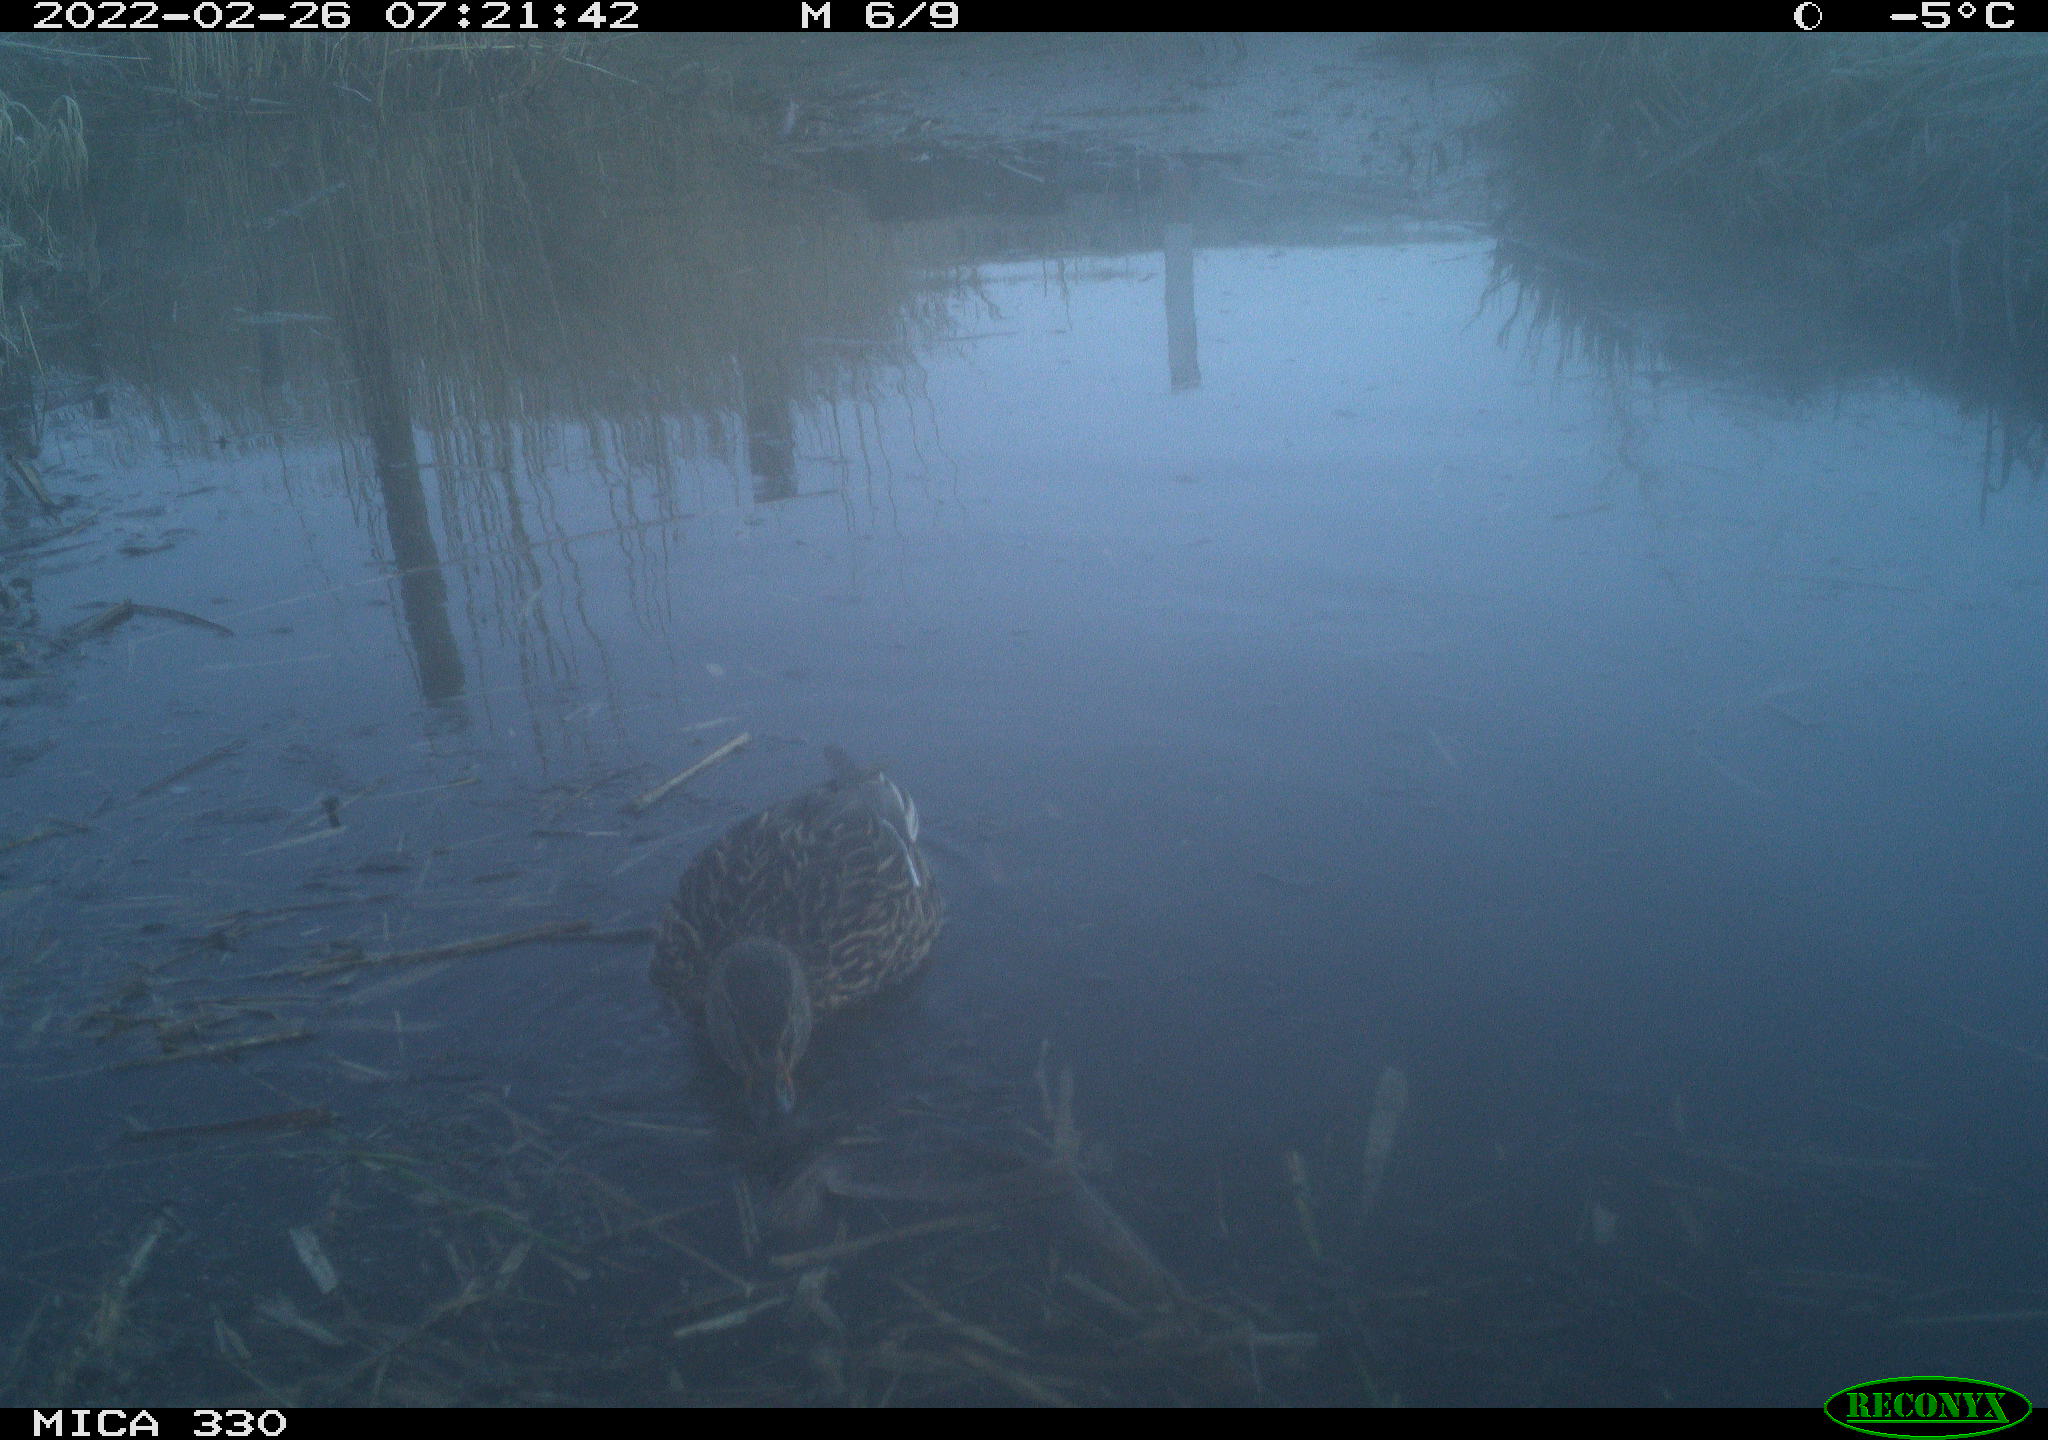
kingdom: Animalia
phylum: Chordata
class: Aves
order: Anseriformes
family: Anatidae
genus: Anas
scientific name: Anas platyrhynchos
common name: Mallard
